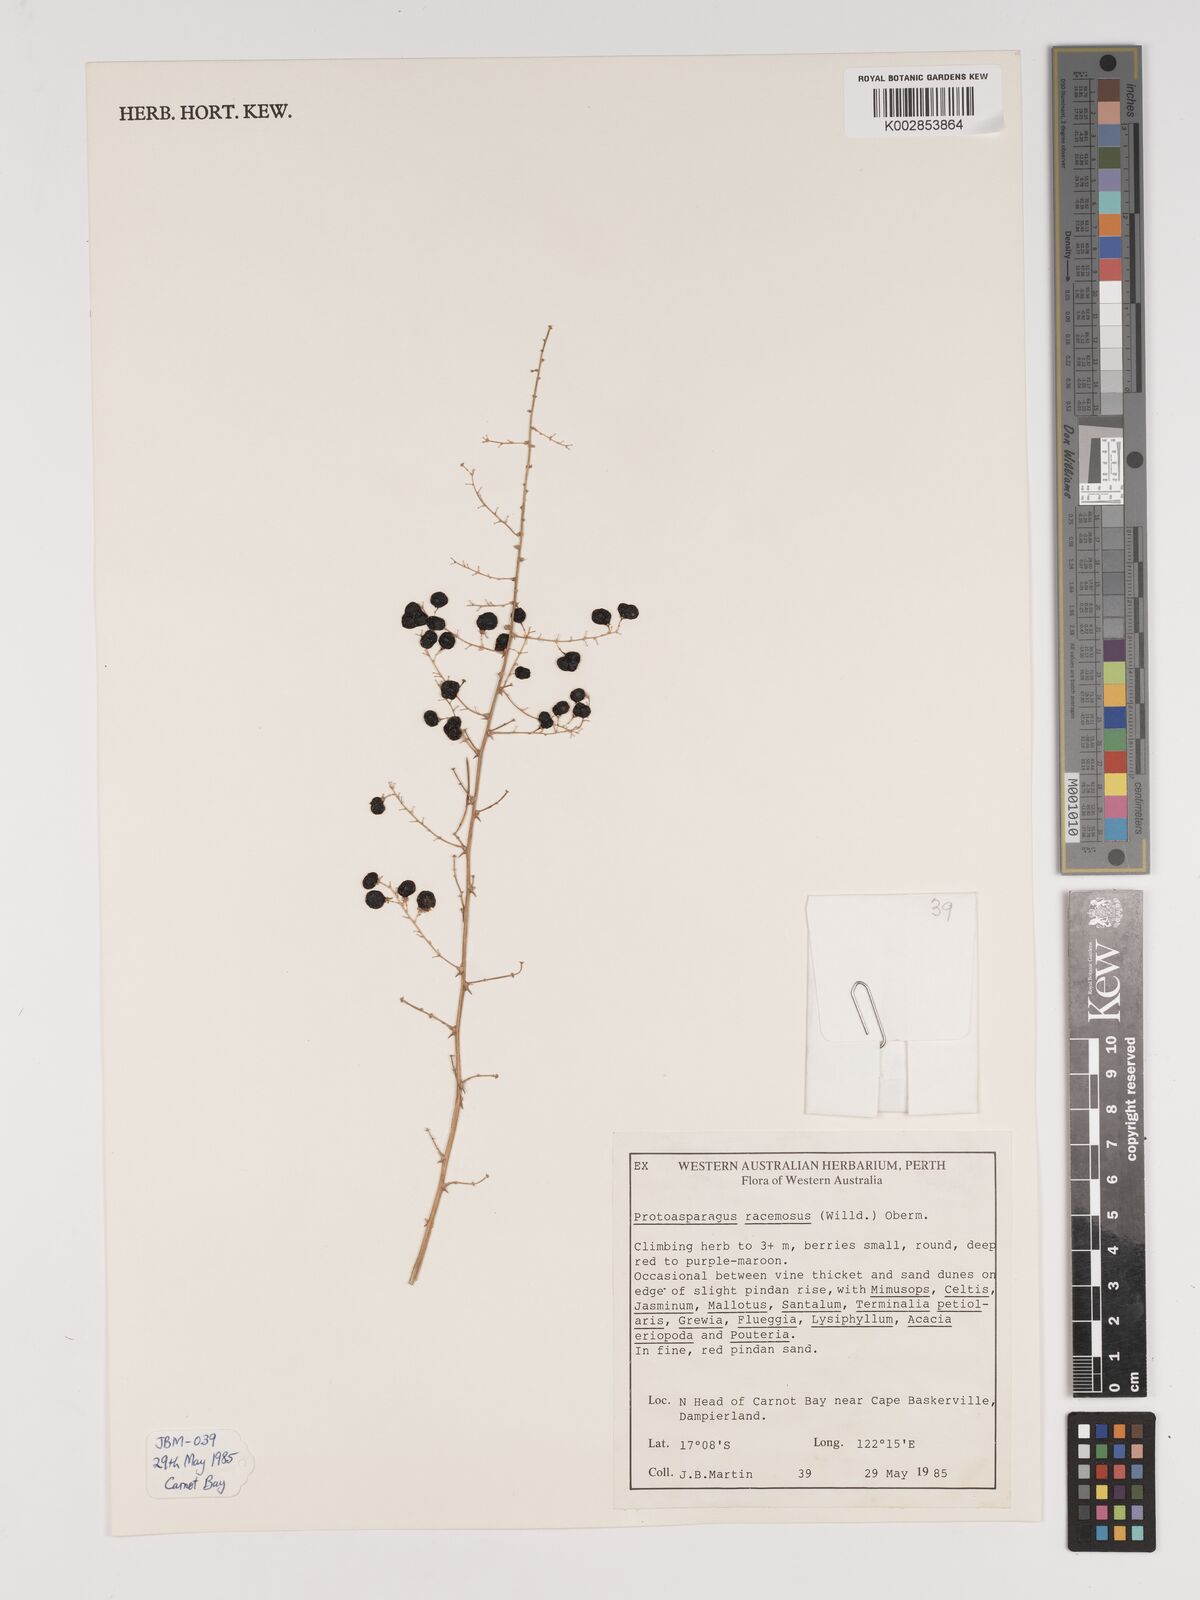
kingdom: Plantae
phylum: Tracheophyta
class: Liliopsida
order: Asparagales
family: Asparagaceae
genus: Asparagus
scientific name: Asparagus racemosus
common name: Asparagus-fern
